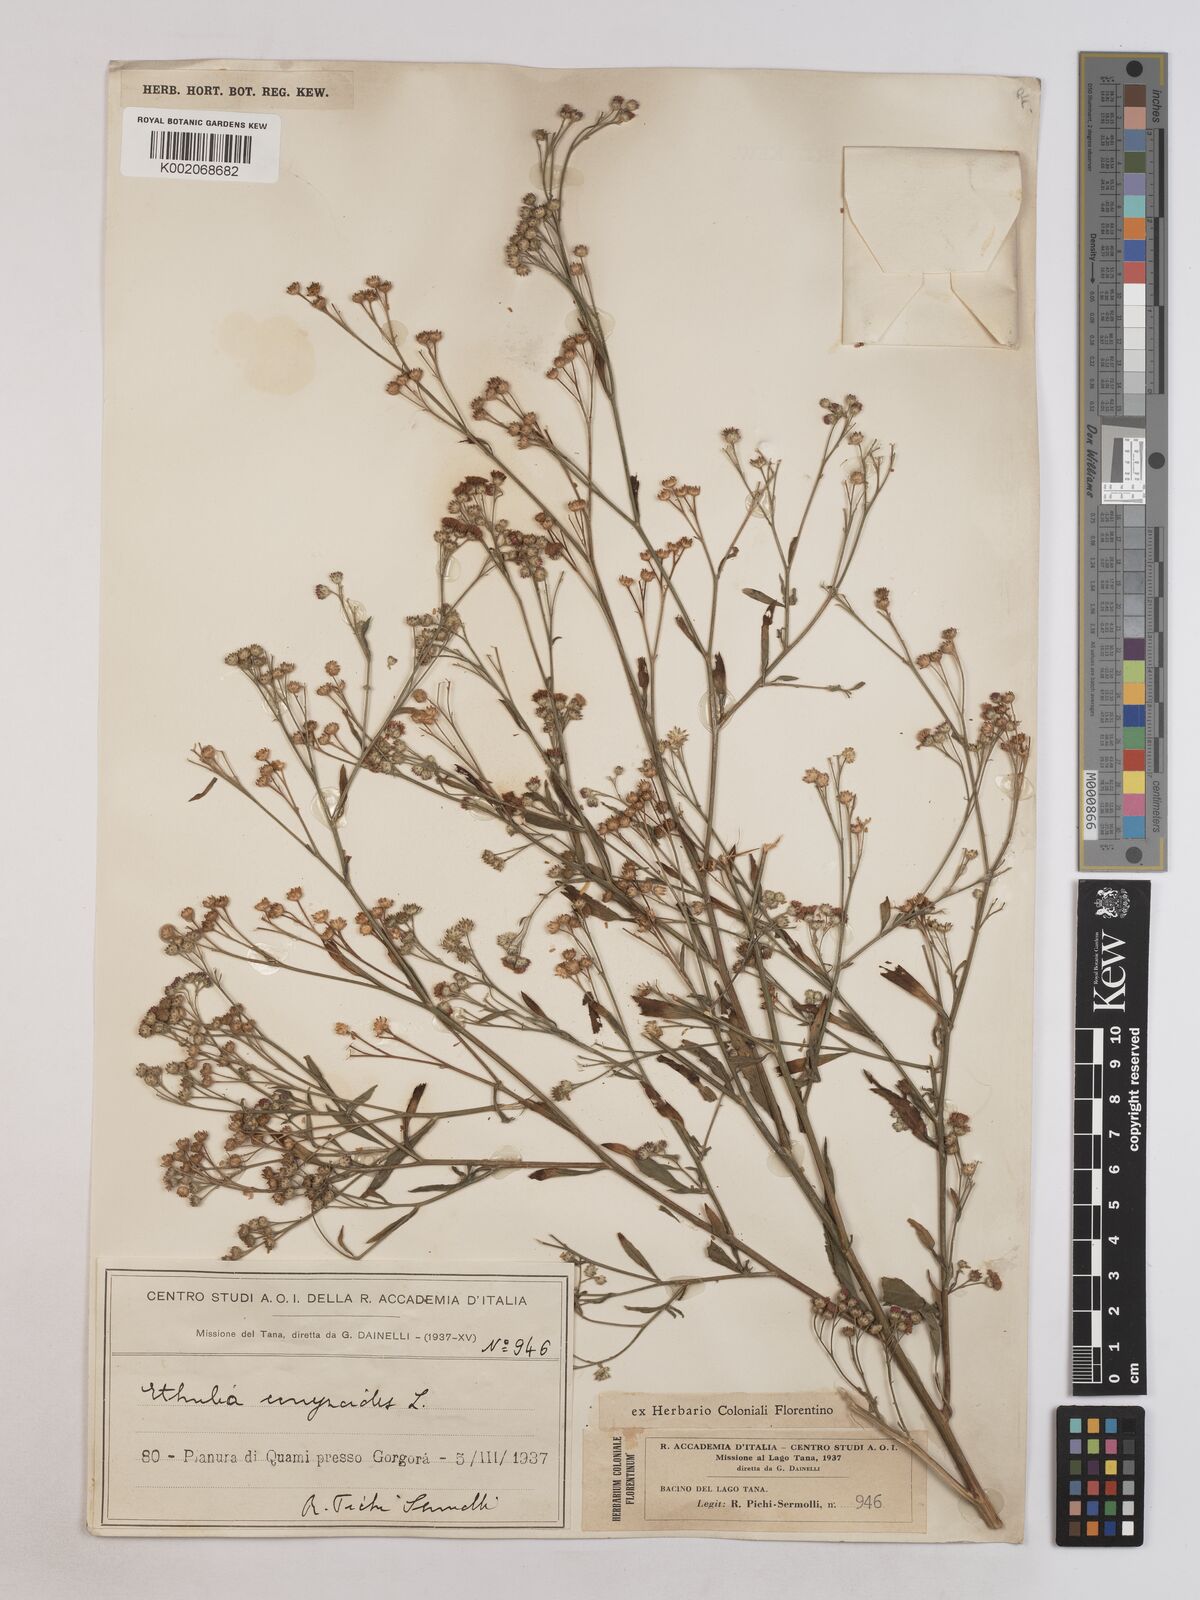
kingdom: Plantae
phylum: Tracheophyta
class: Magnoliopsida
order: Asterales
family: Asteraceae
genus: Ethulia
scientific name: Ethulia gracilis
